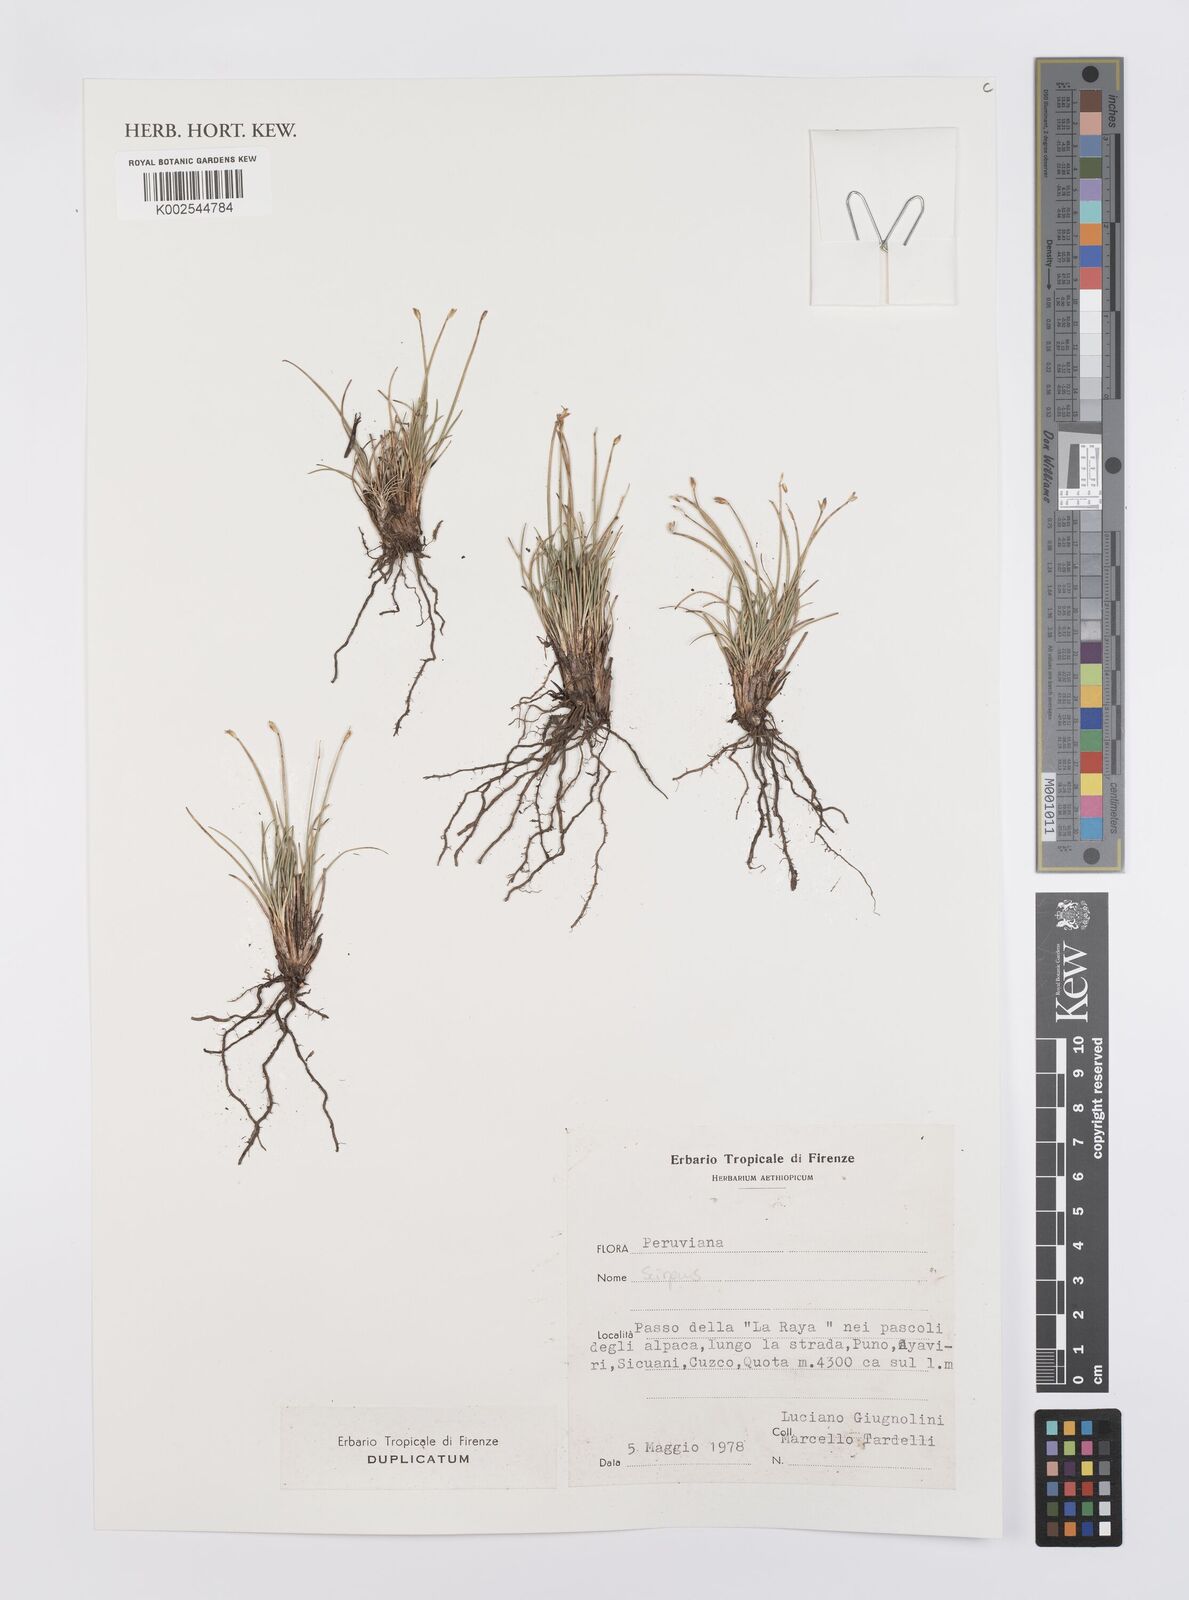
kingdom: Plantae
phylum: Tracheophyta
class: Liliopsida
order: Poales
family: Cyperaceae
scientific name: Cyperaceae
